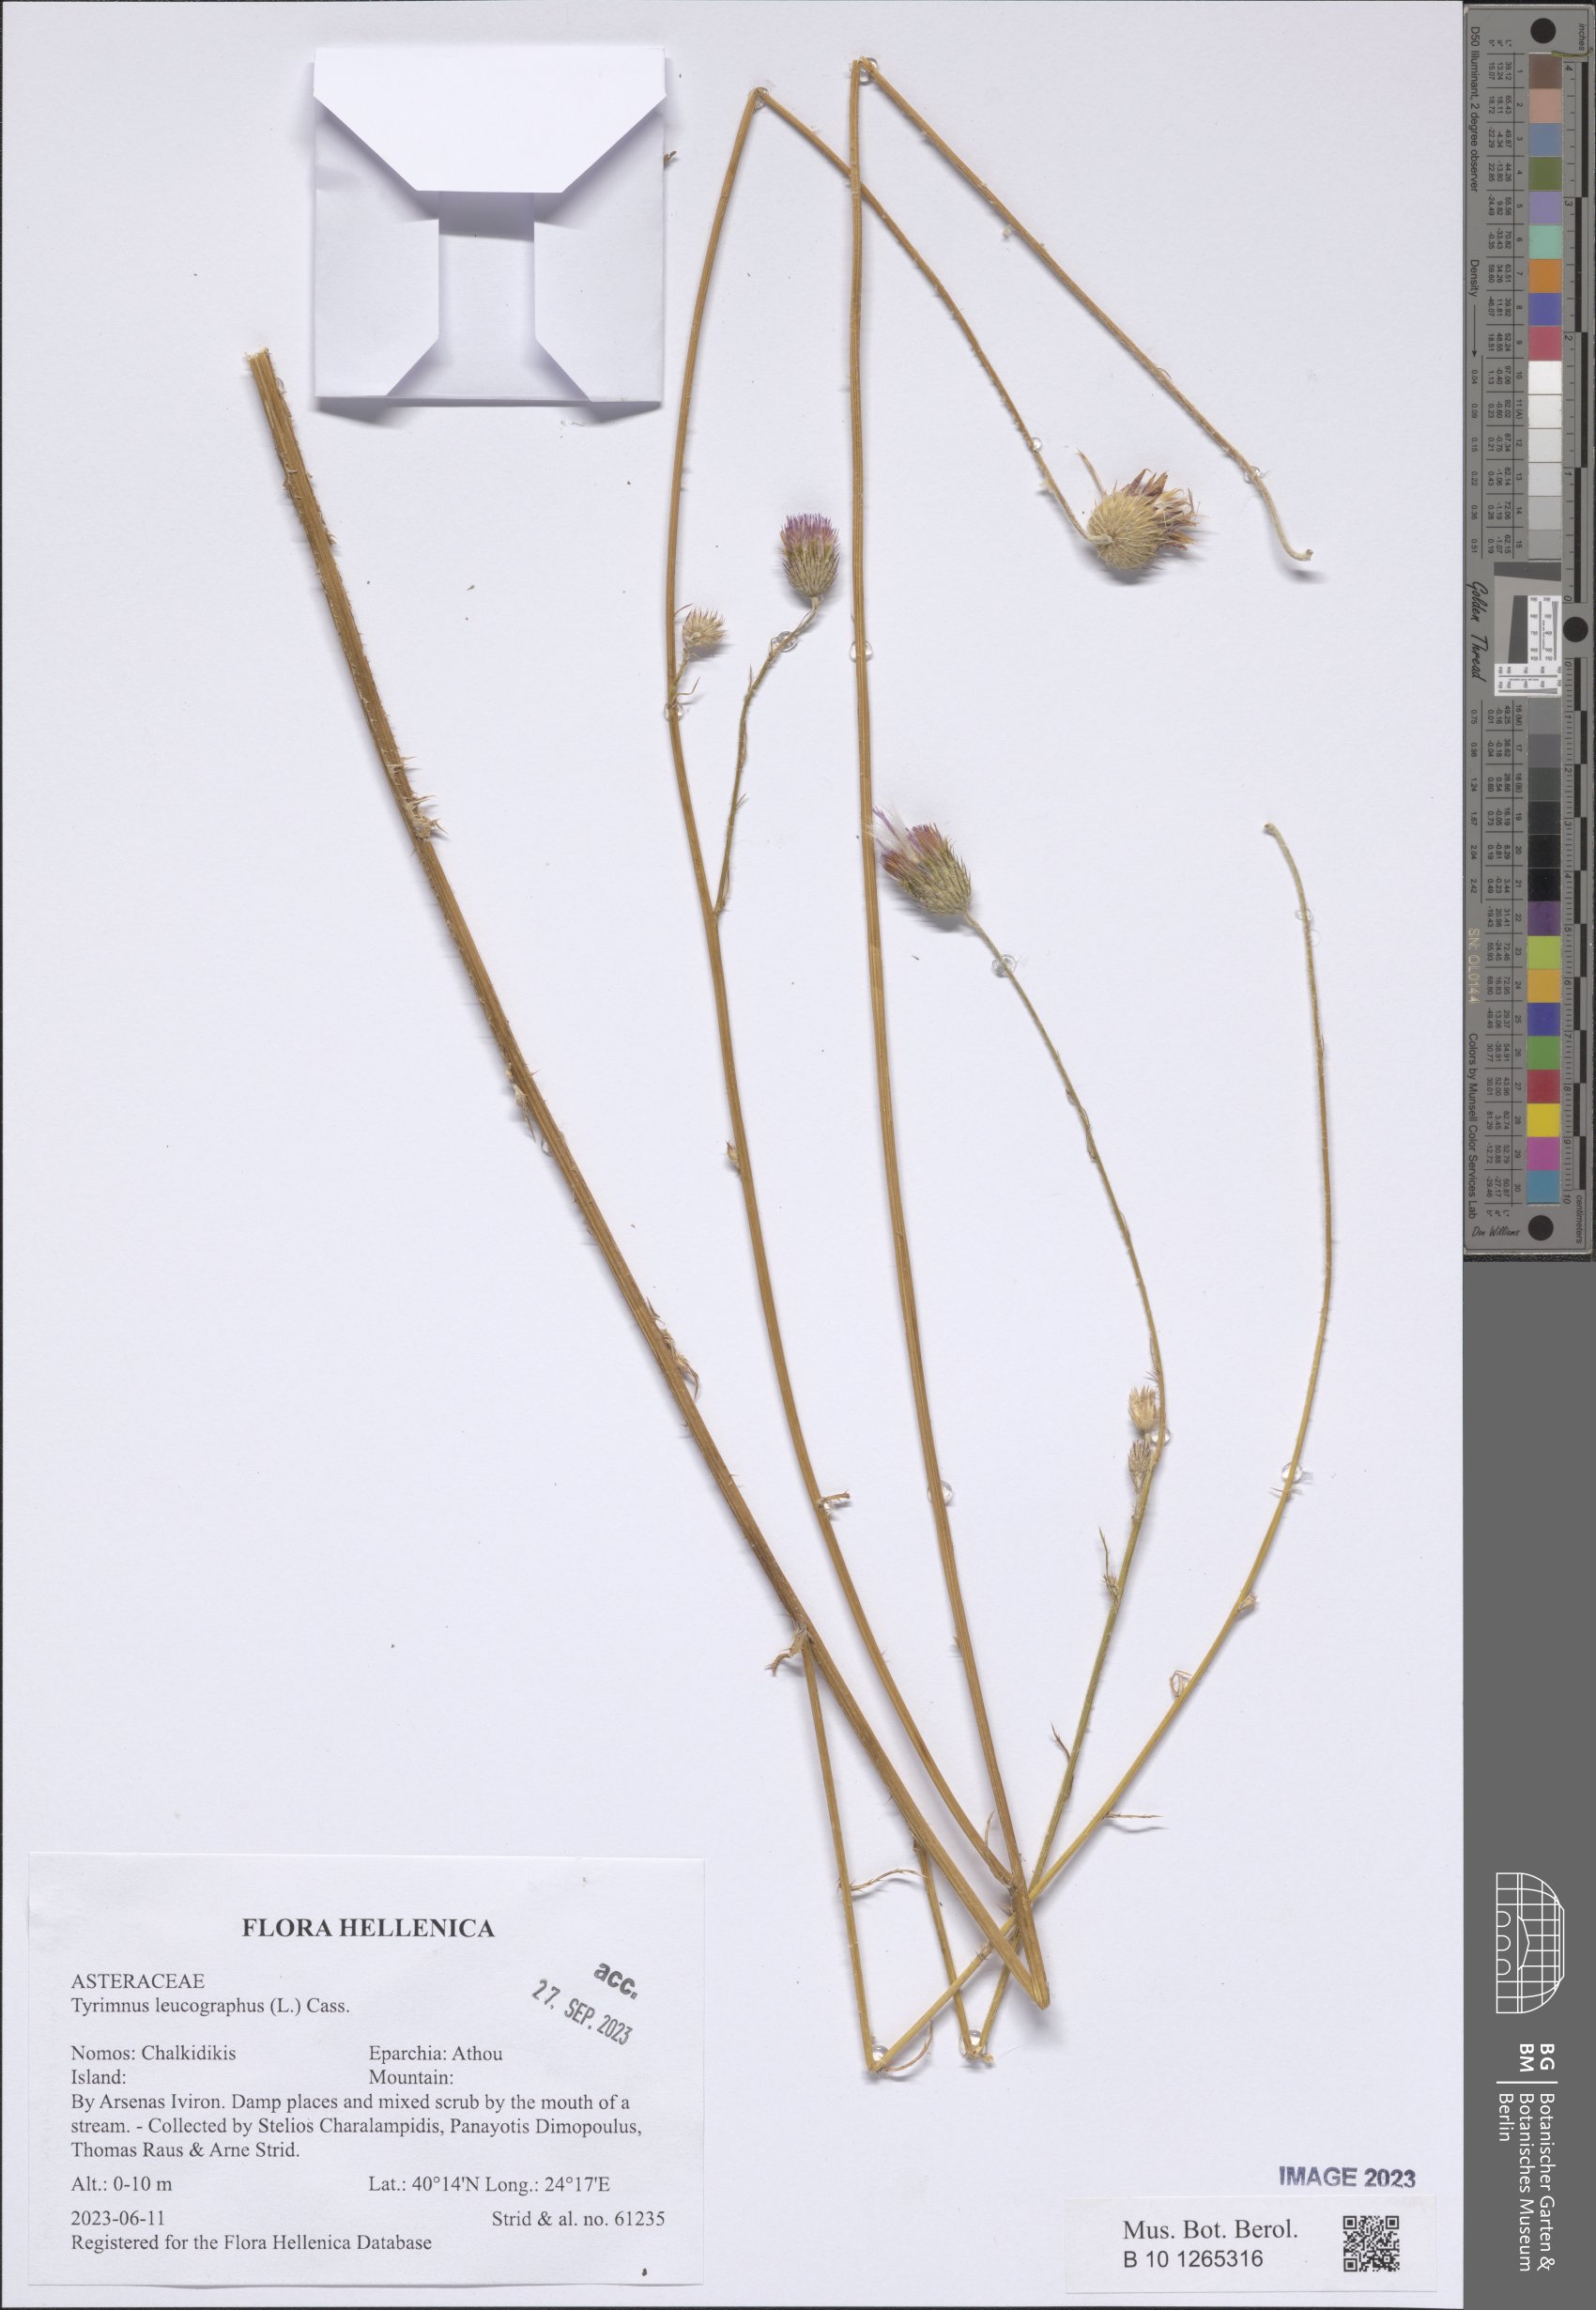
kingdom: Plantae
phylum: Tracheophyta
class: Magnoliopsida
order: Asterales
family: Asteraceae
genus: Tyrimnus
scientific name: Tyrimnus leucographus
